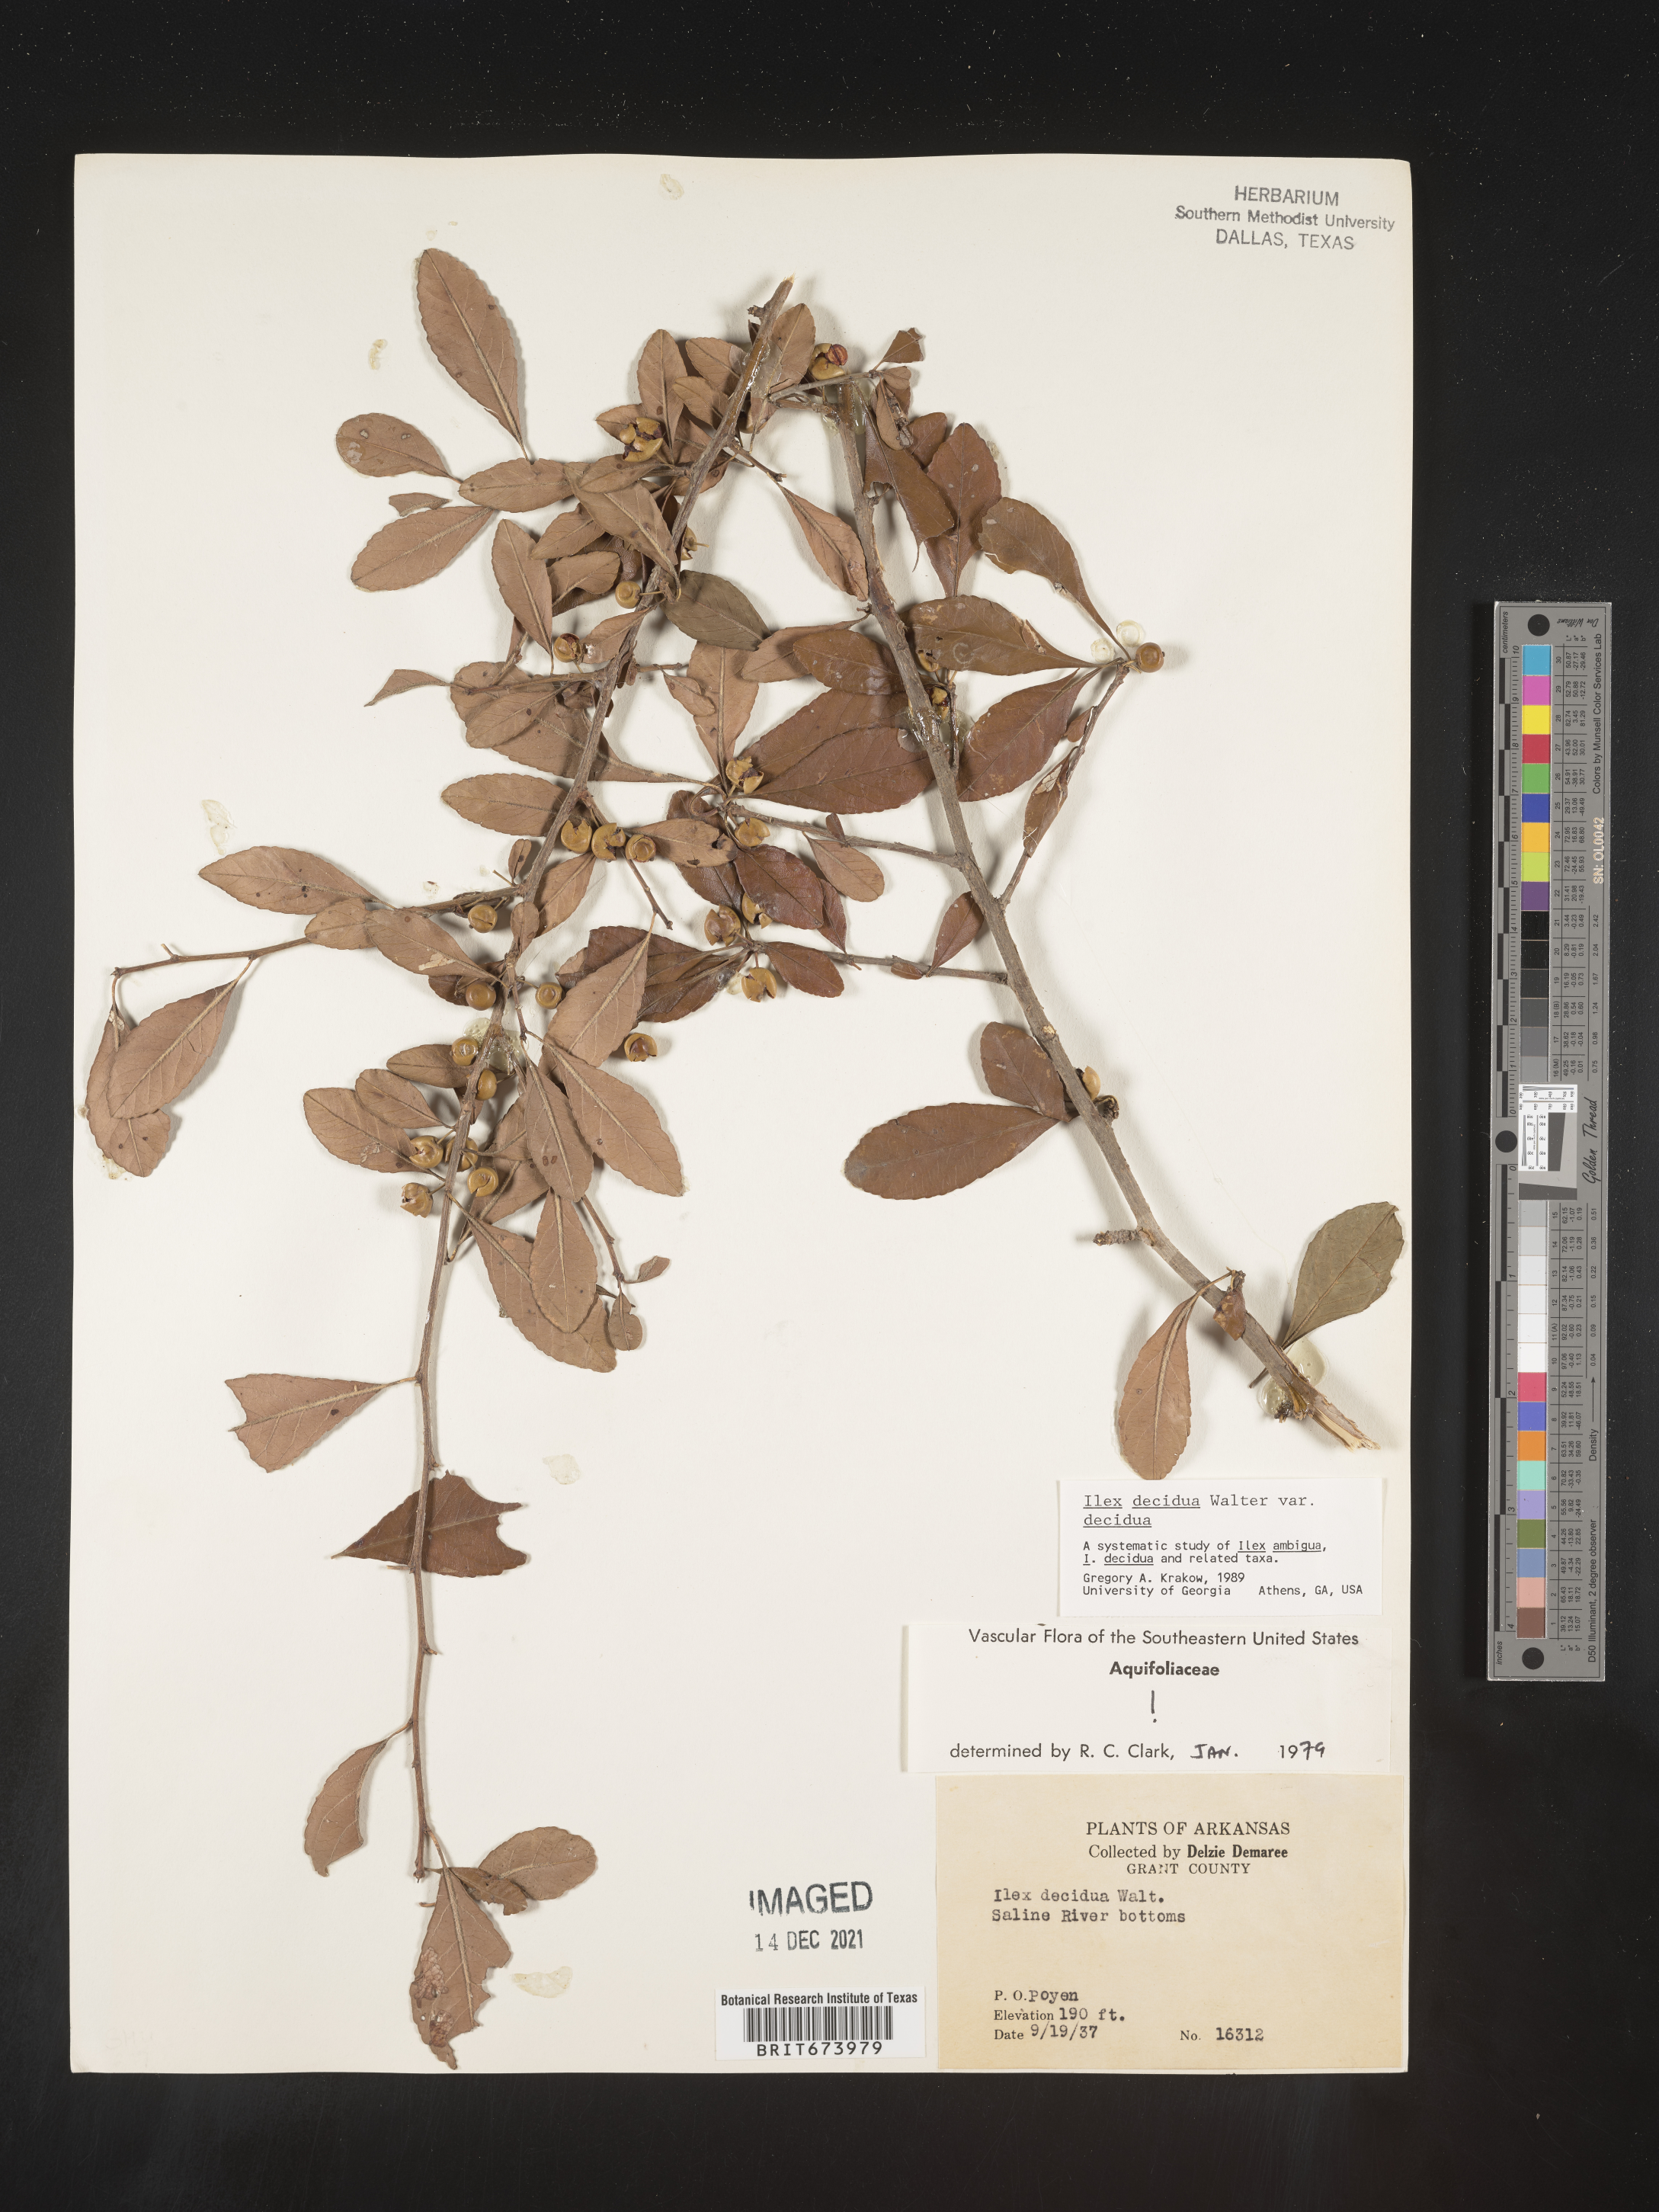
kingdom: Plantae
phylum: Tracheophyta
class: Magnoliopsida
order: Aquifoliales
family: Aquifoliaceae
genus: Ilex
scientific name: Ilex decidua
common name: Possum-haw
